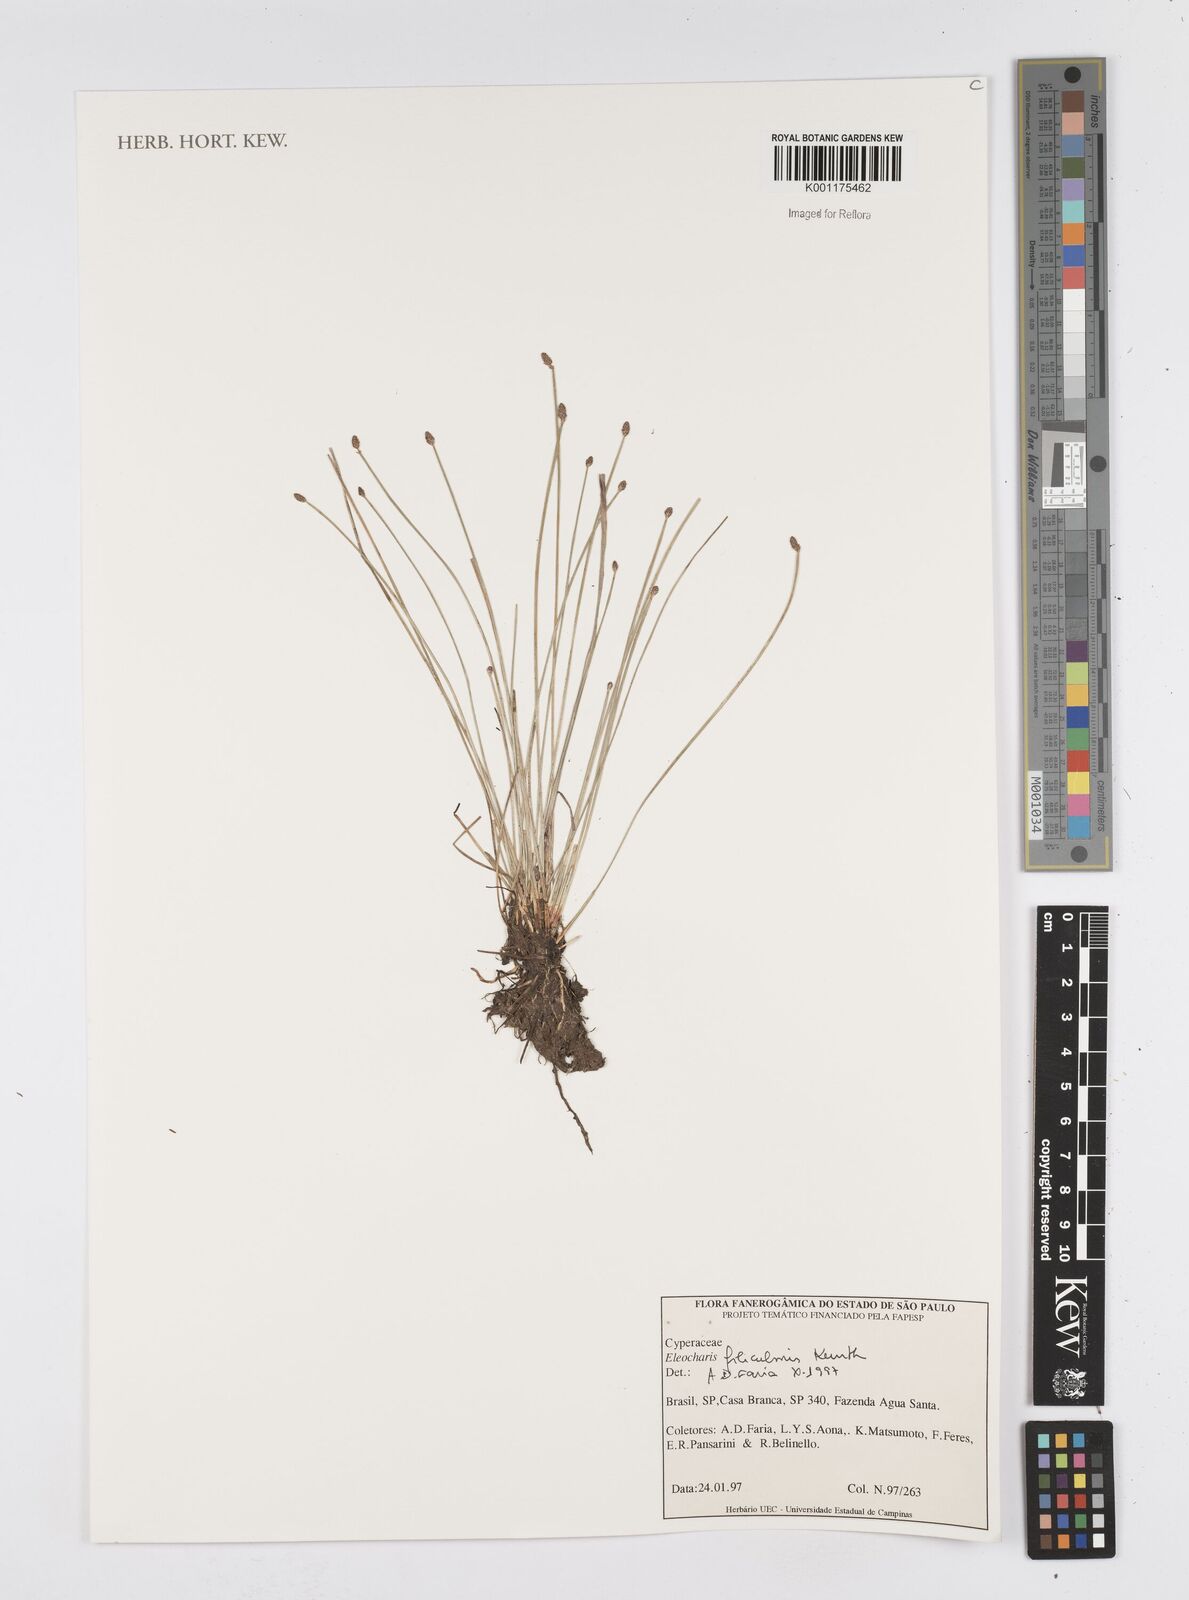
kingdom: Plantae
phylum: Tracheophyta
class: Liliopsida
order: Poales
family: Cyperaceae
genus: Eleocharis
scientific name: Eleocharis filiculmis
